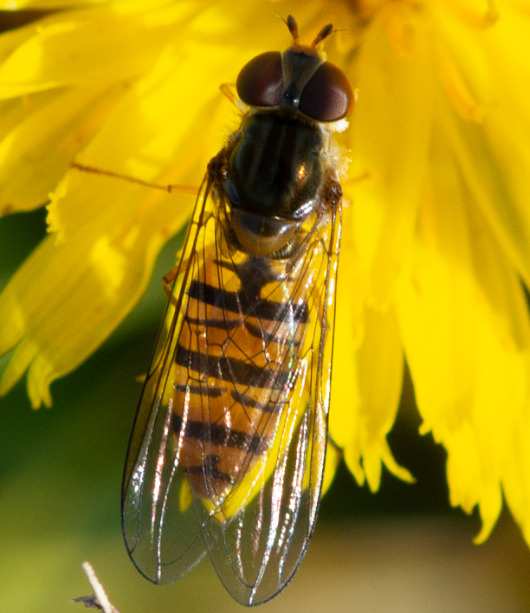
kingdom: Animalia
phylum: Arthropoda
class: Insecta
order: Diptera
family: Syrphidae
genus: Episyrphus
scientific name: Episyrphus balteatus
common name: Dobbeltbåndet svirreflue
